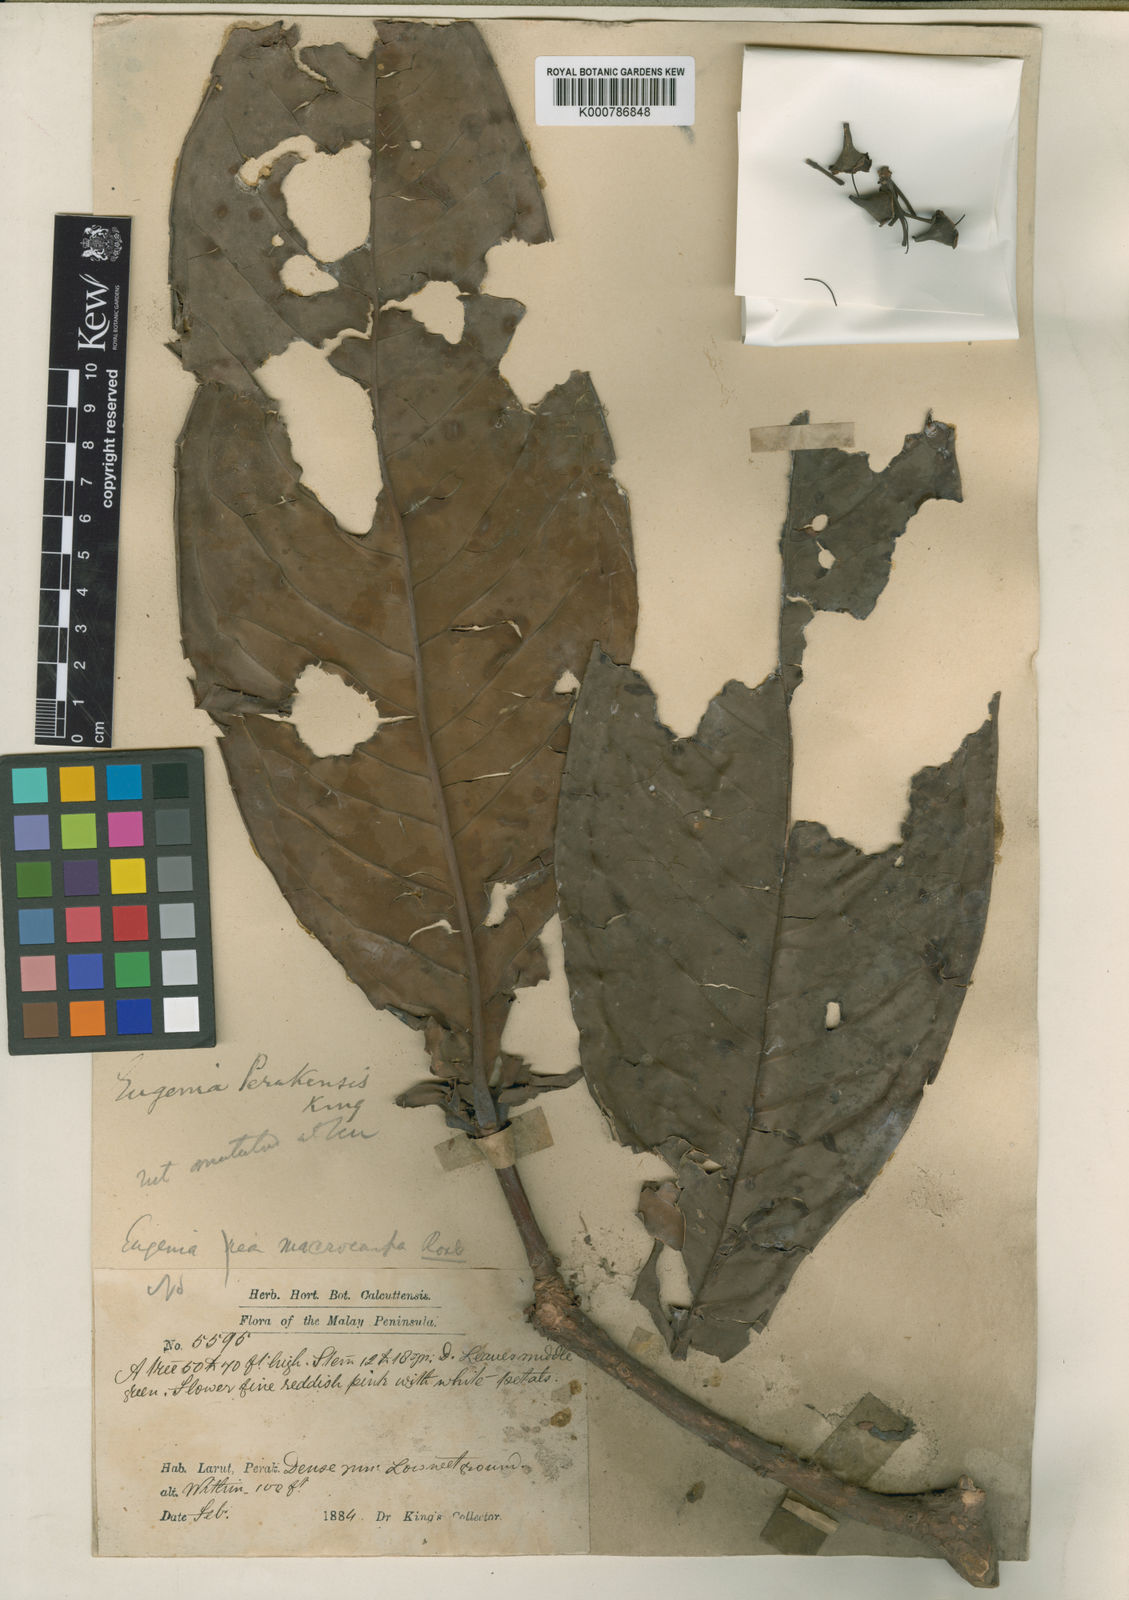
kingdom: Plantae
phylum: Tracheophyta
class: Magnoliopsida
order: Myrtales
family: Myrtaceae
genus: Syzygium
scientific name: Syzygium formosum
